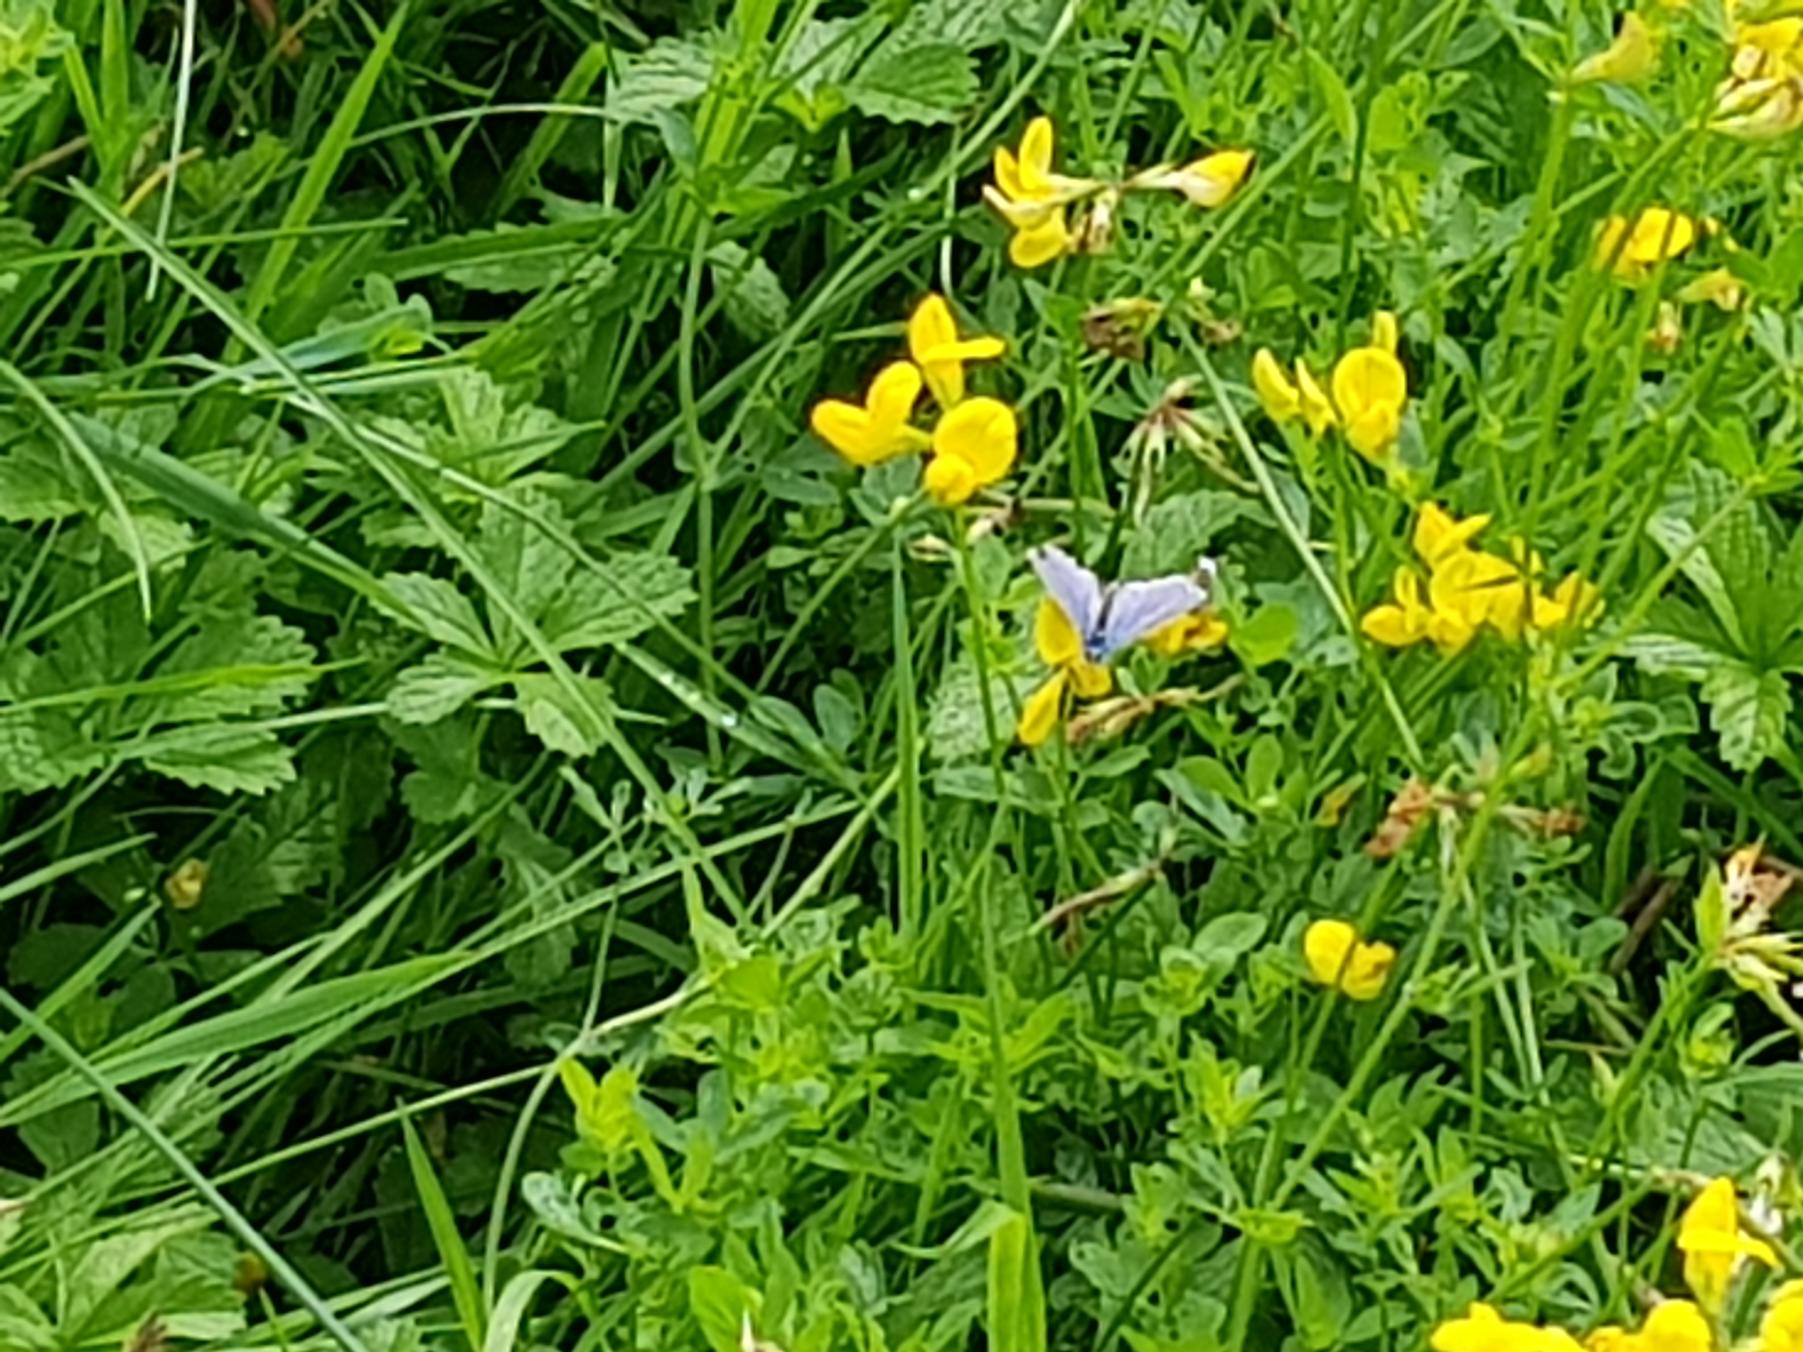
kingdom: Animalia
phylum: Arthropoda
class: Insecta
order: Lepidoptera
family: Lycaenidae
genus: Polyommatus
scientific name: Polyommatus icarus
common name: Almindelig blåfugl
